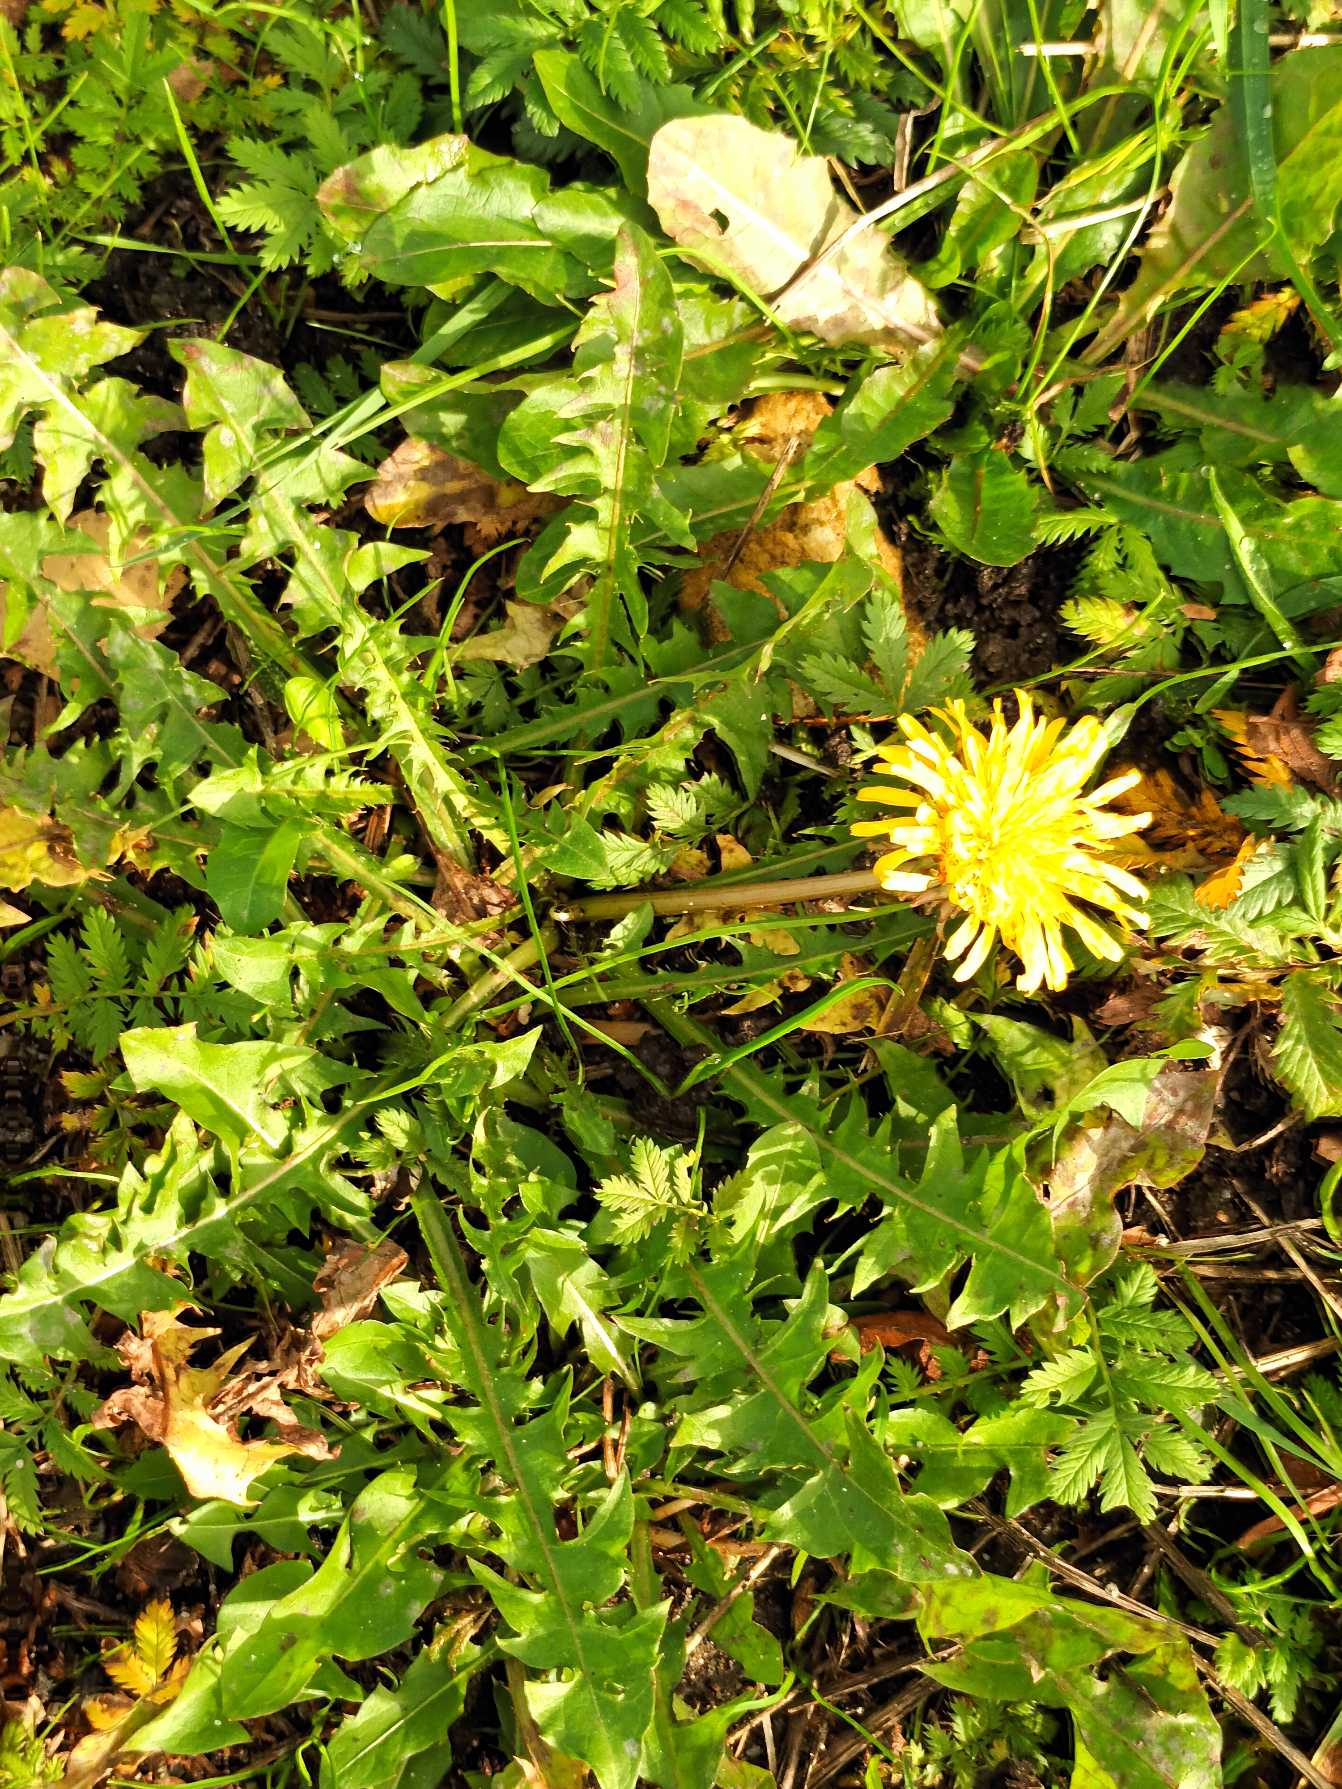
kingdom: Plantae
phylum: Tracheophyta
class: Magnoliopsida
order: Asterales
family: Asteraceae
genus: Taraxacum
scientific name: Taraxacum
